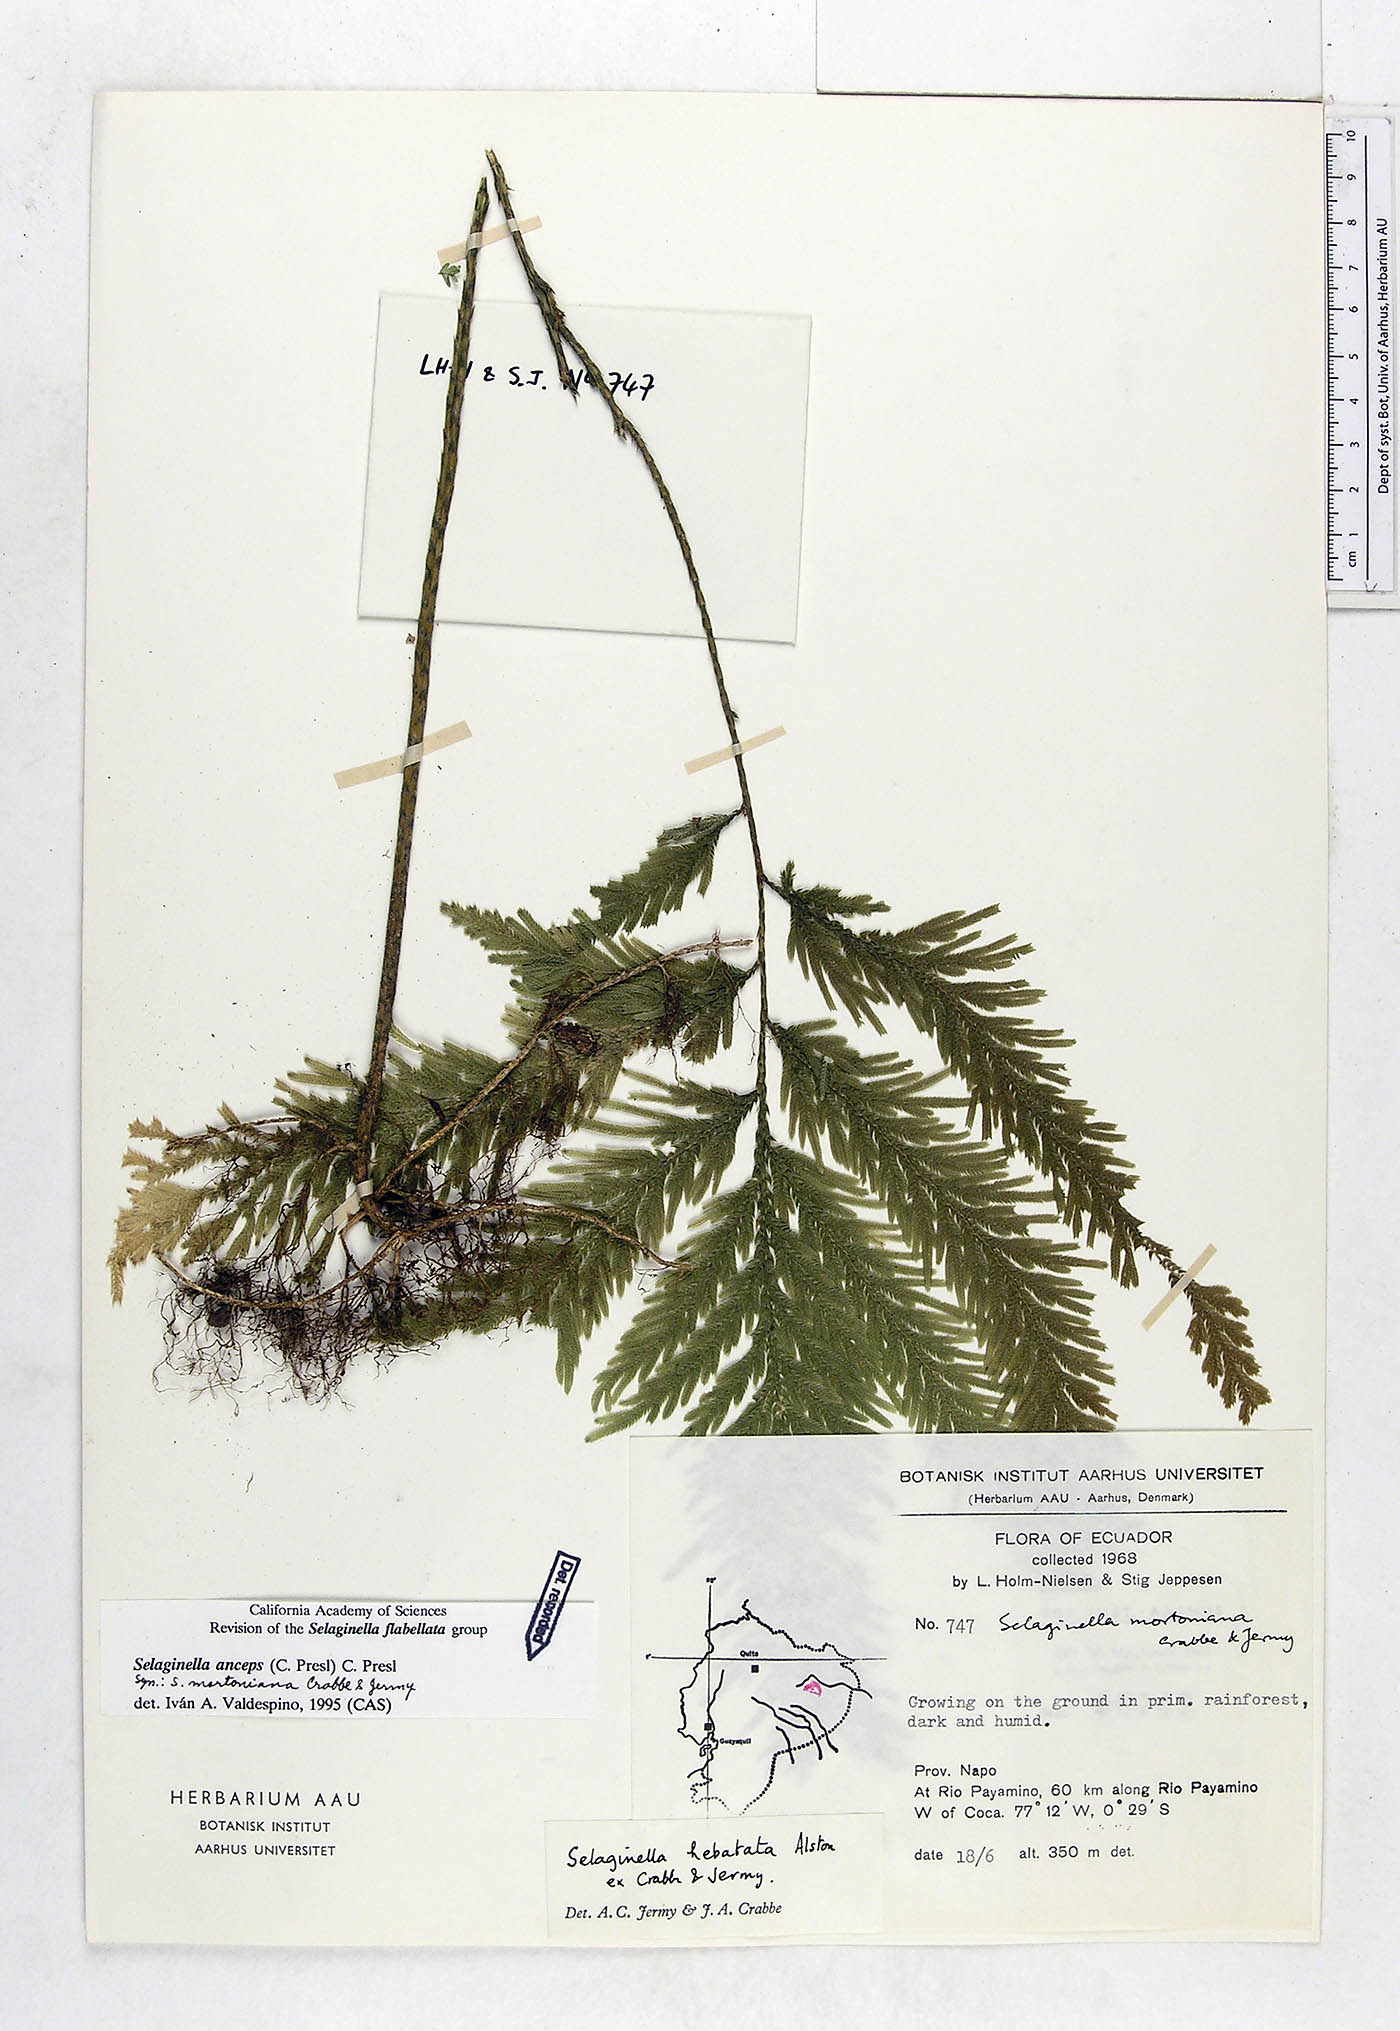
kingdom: Plantae
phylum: Tracheophyta
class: Lycopodiopsida
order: Selaginellales
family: Selaginellaceae
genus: Selaginella
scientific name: Selaginella anceps
